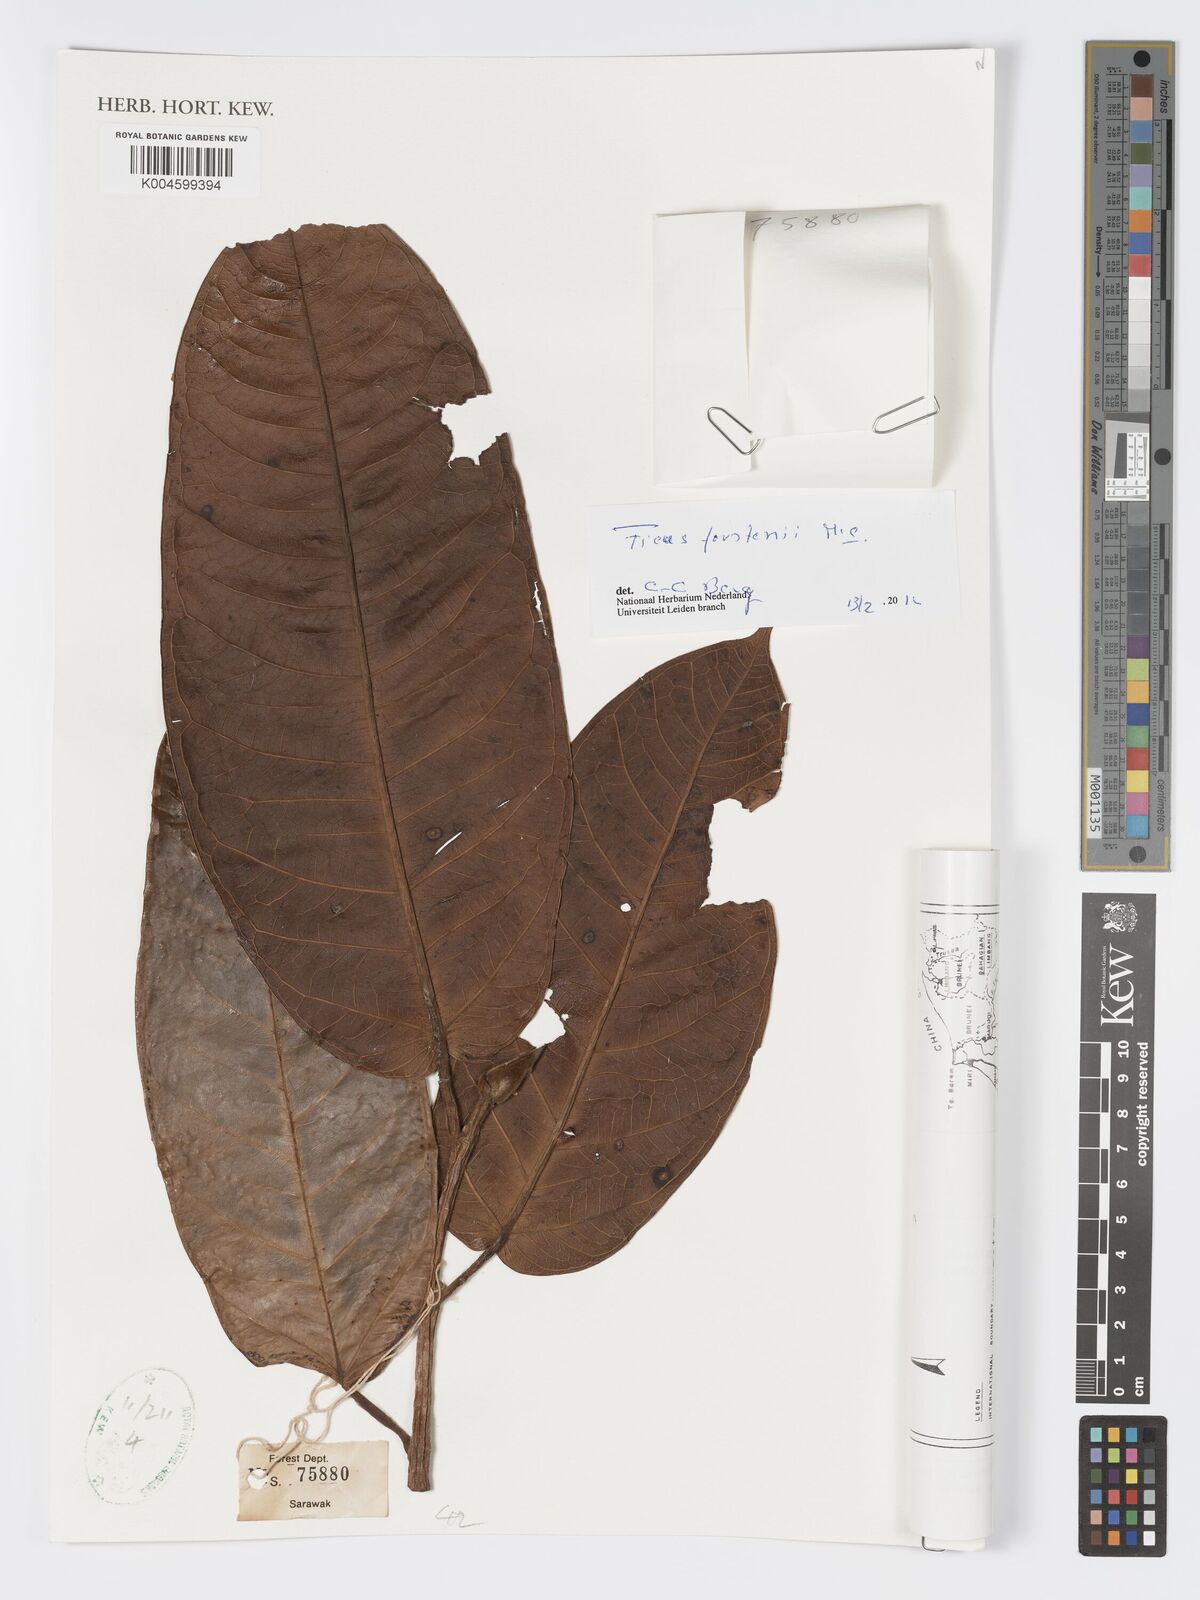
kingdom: Plantae
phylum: Tracheophyta
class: Magnoliopsida
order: Rosales
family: Moraceae
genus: Ficus
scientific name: Ficus forstenii
